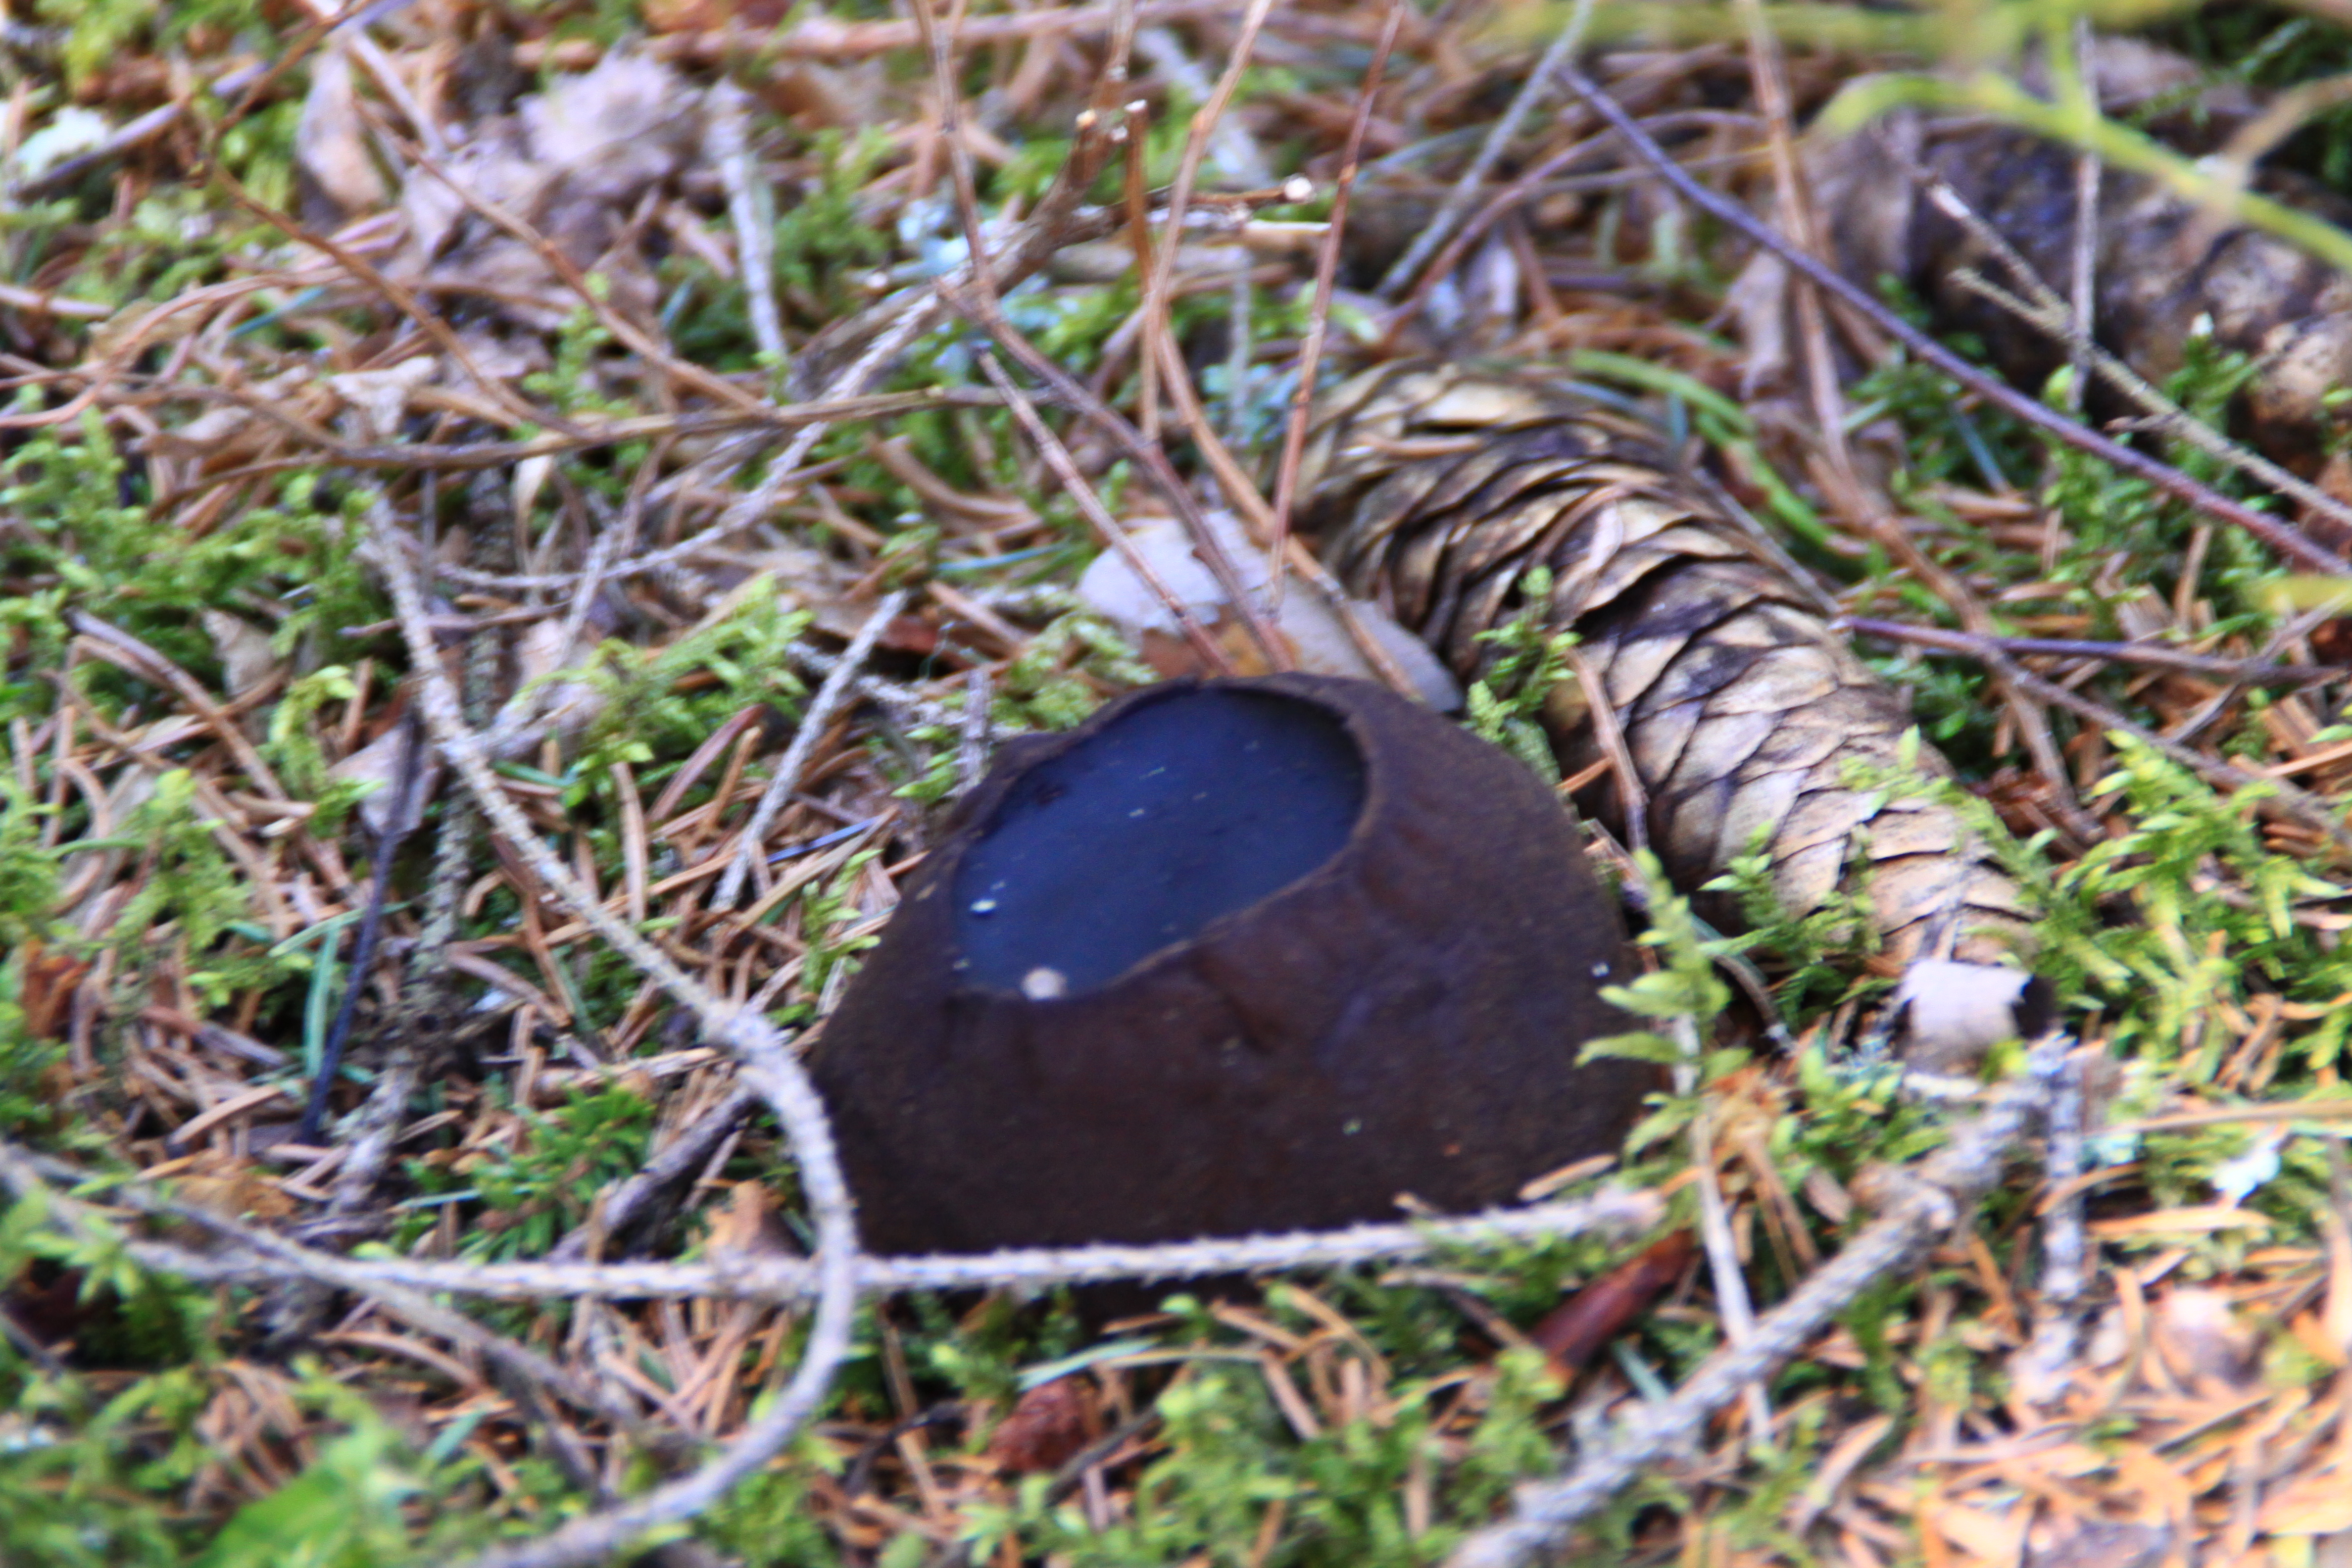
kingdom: Fungi
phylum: Ascomycota
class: Pezizomycetes
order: Pezizales
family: Sarcosomataceae
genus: Sarcosoma
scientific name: Sarcosoma globosum
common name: Charred-pancake cup
